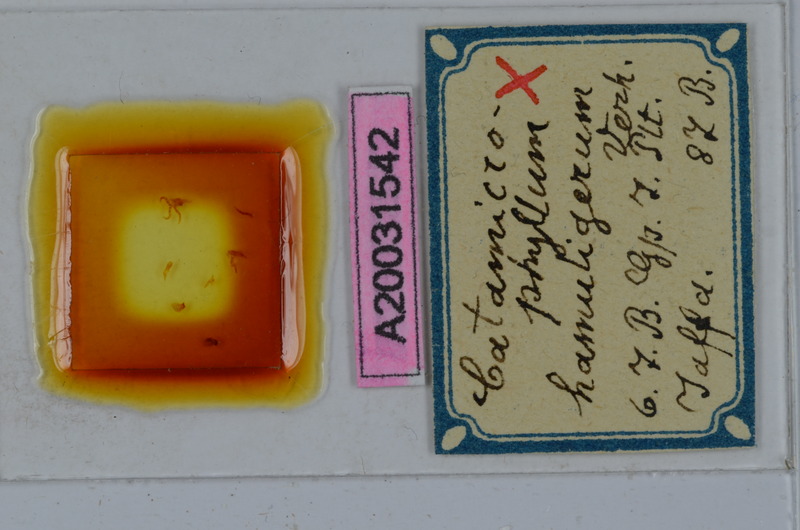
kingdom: Animalia
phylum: Arthropoda
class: Diplopoda
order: Julida
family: Julidae
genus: Catamicrophyllum
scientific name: Catamicrophyllum hamuligerum
